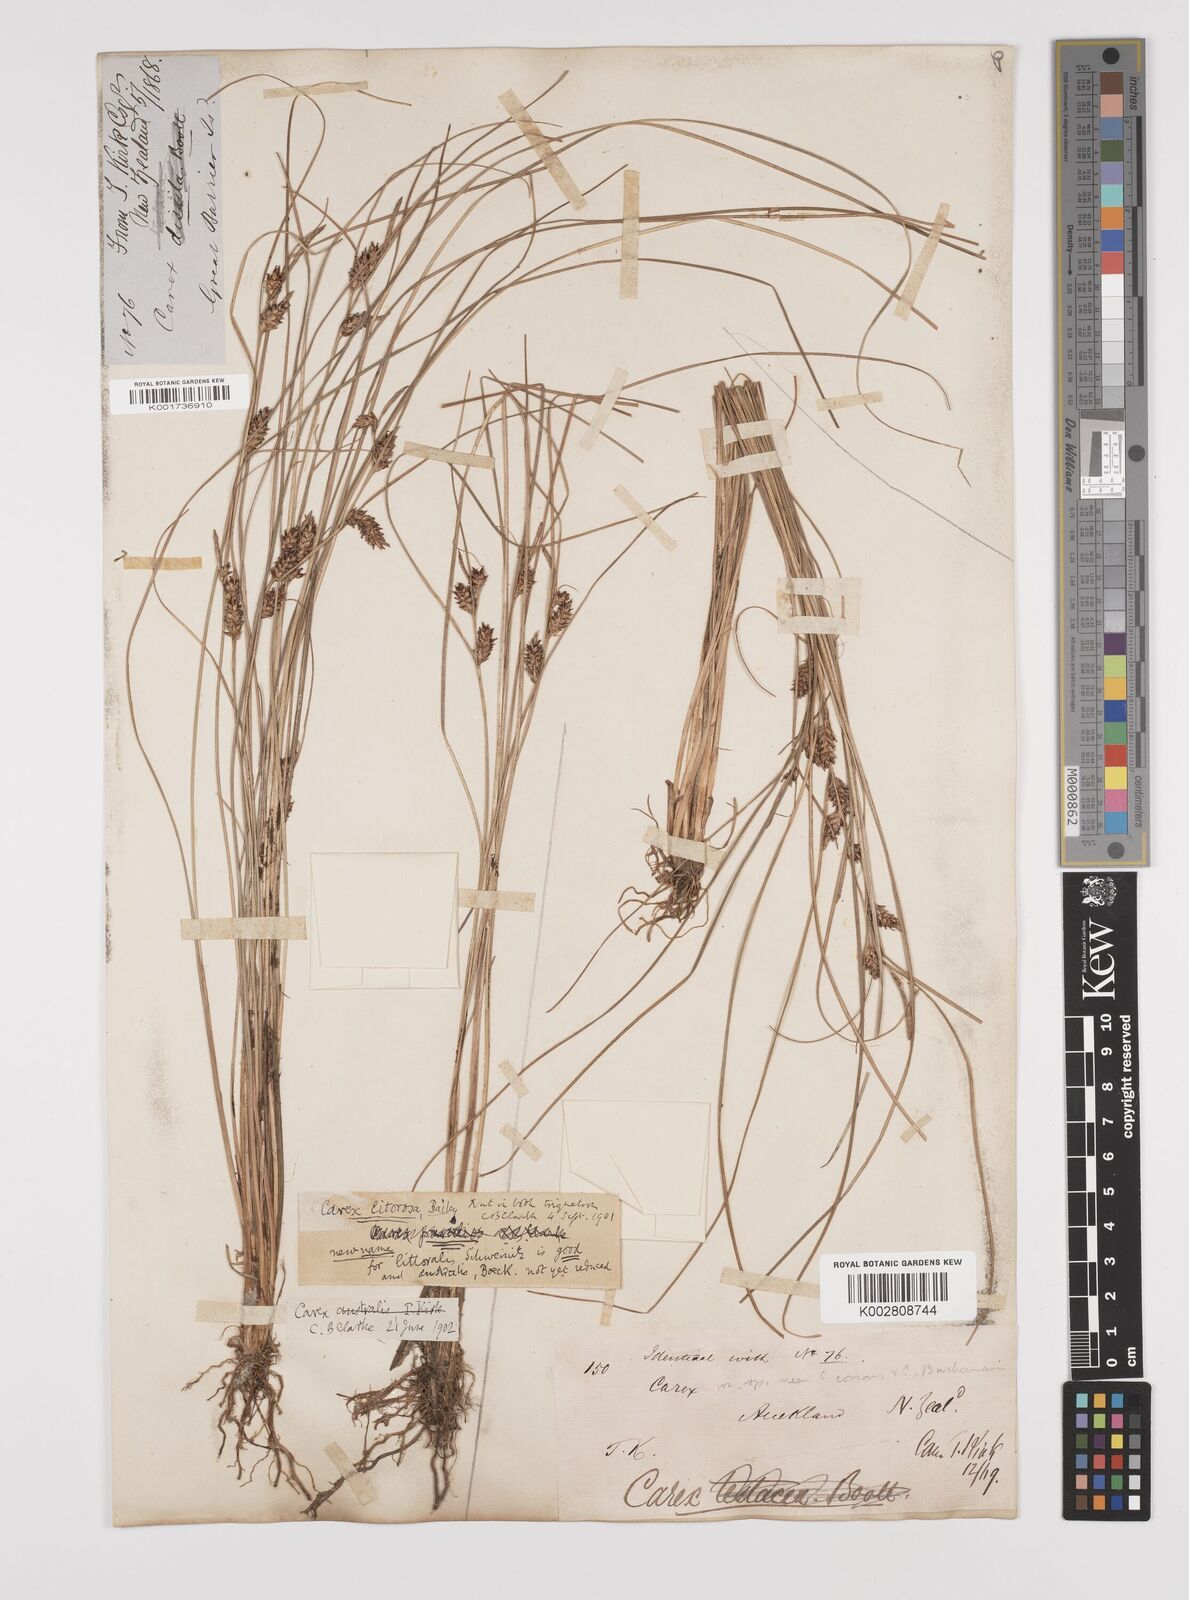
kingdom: Plantae
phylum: Tracheophyta
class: Liliopsida
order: Poales
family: Cyperaceae
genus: Carex
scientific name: Carex litorosa
